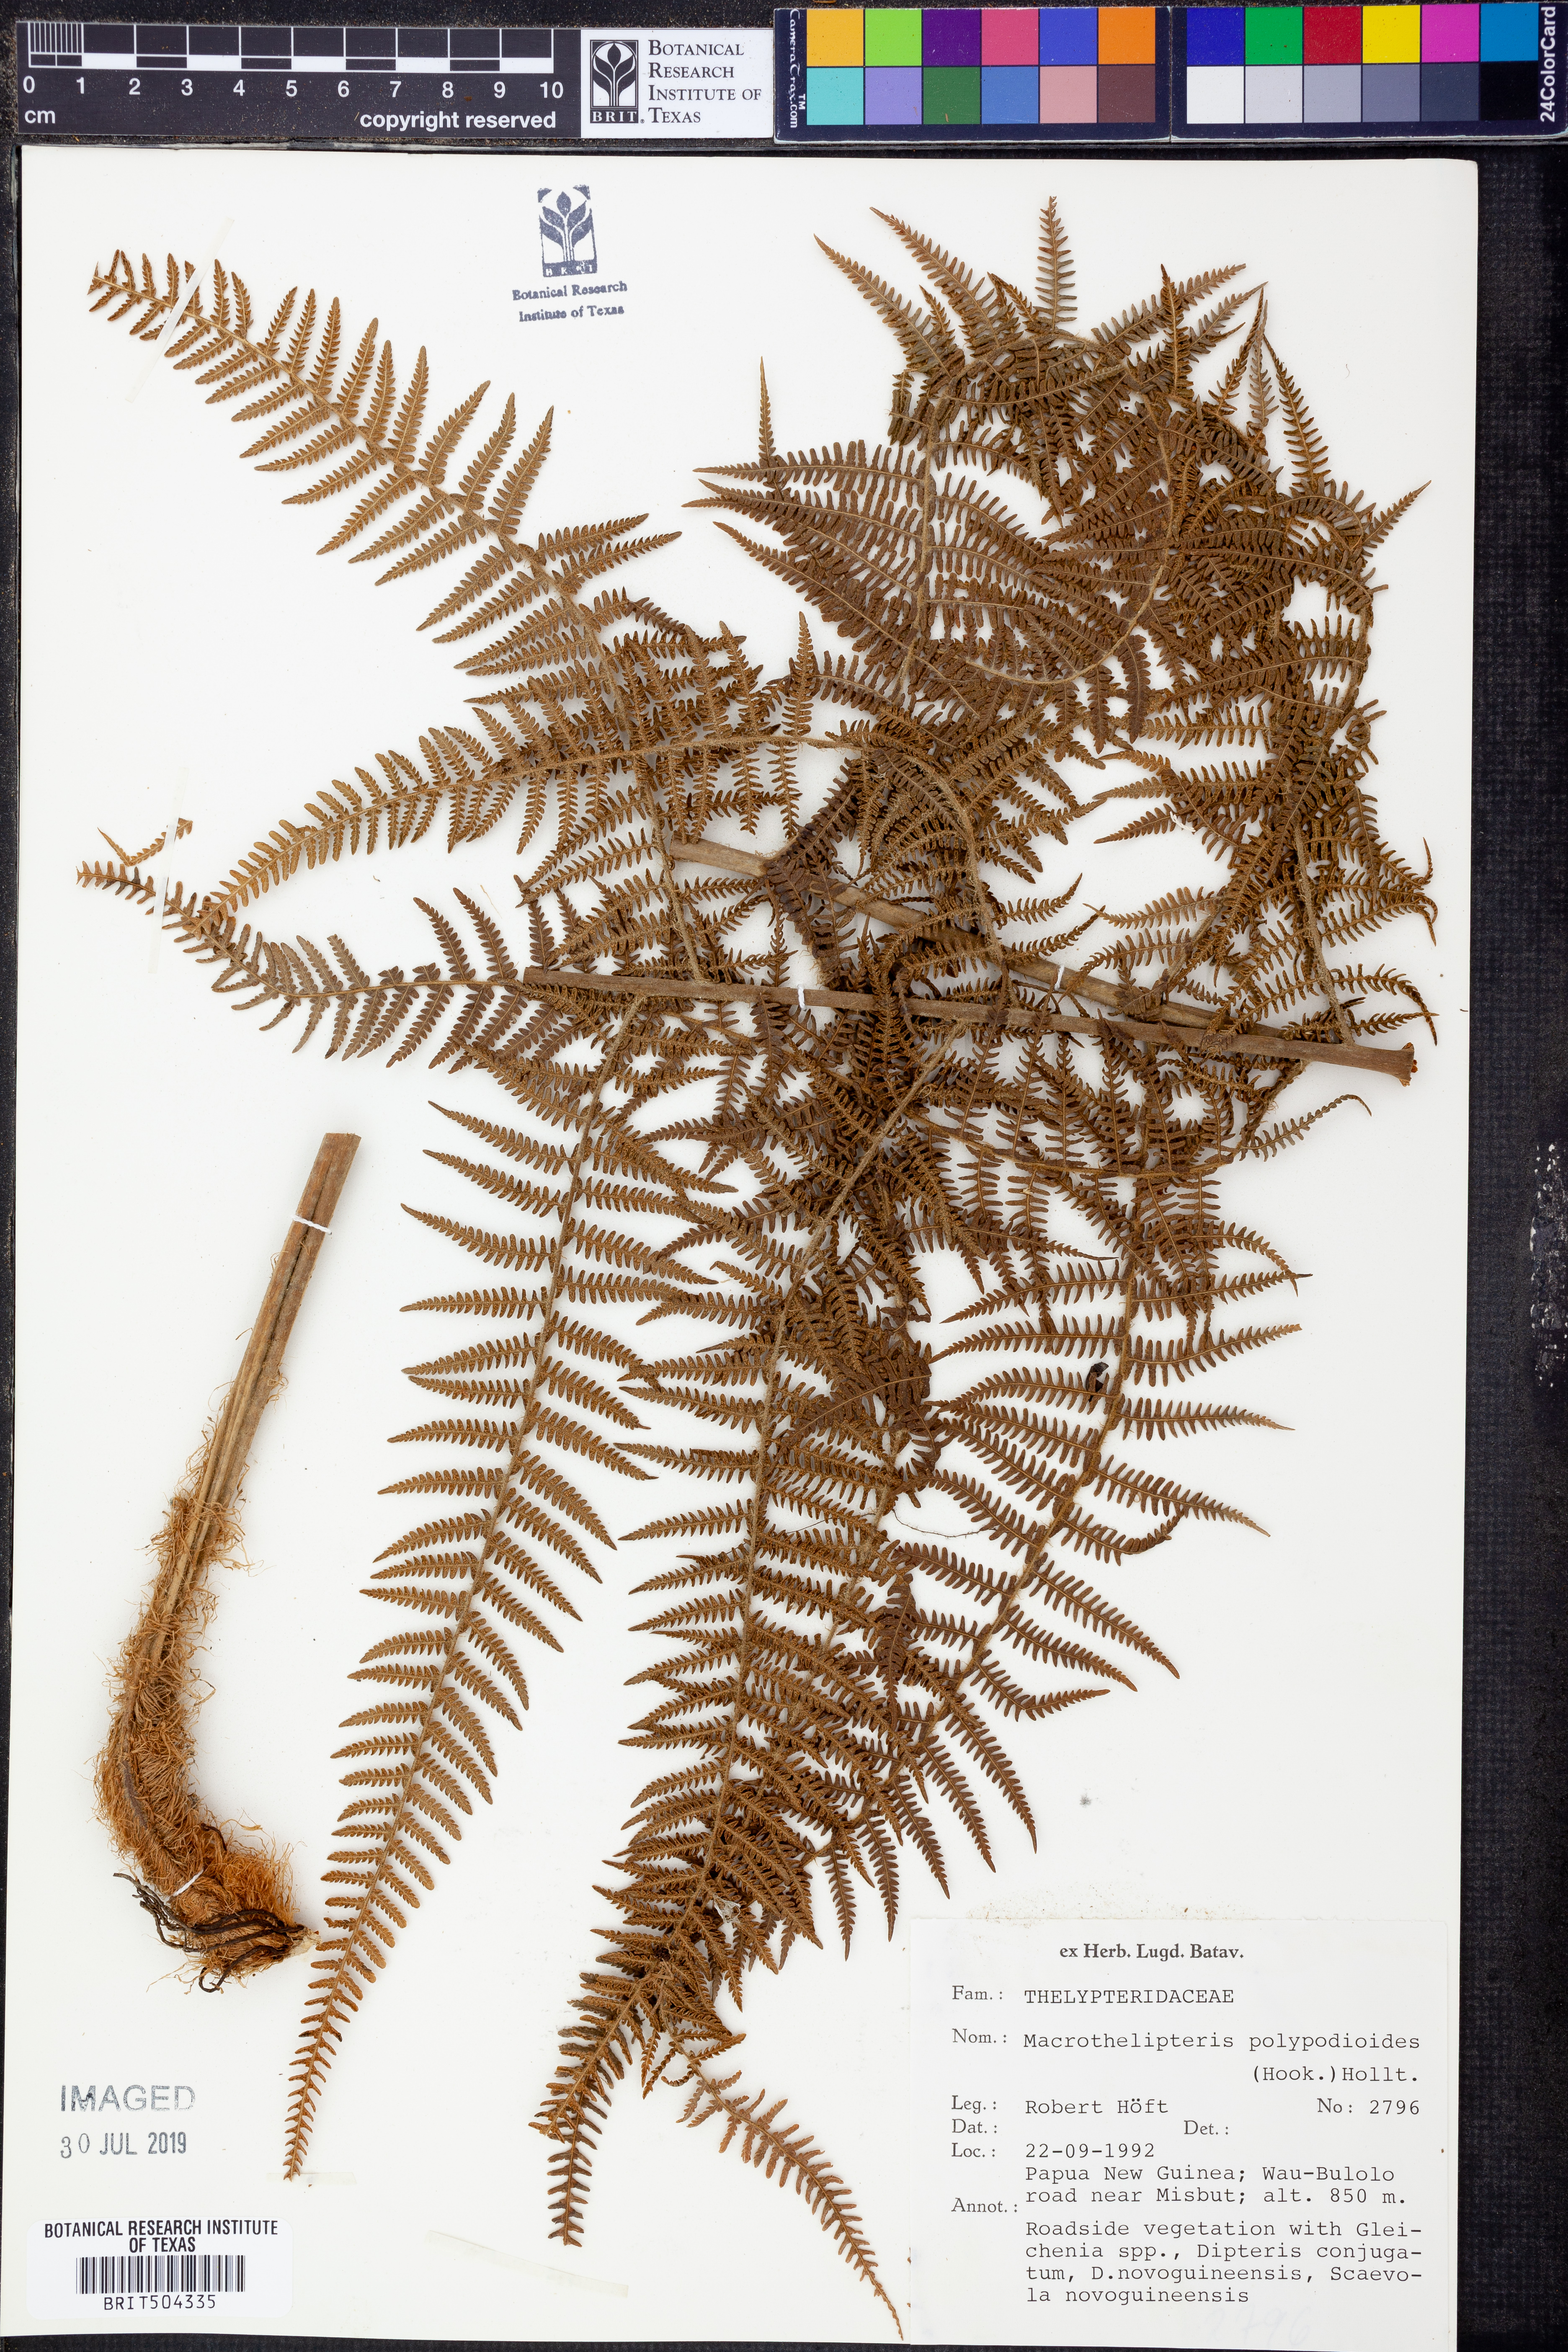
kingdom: Plantae
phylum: Tracheophyta
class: Polypodiopsida
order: Polypodiales
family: Thelypteridaceae
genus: Macrothelypteris
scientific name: Macrothelypteris polypodioides
